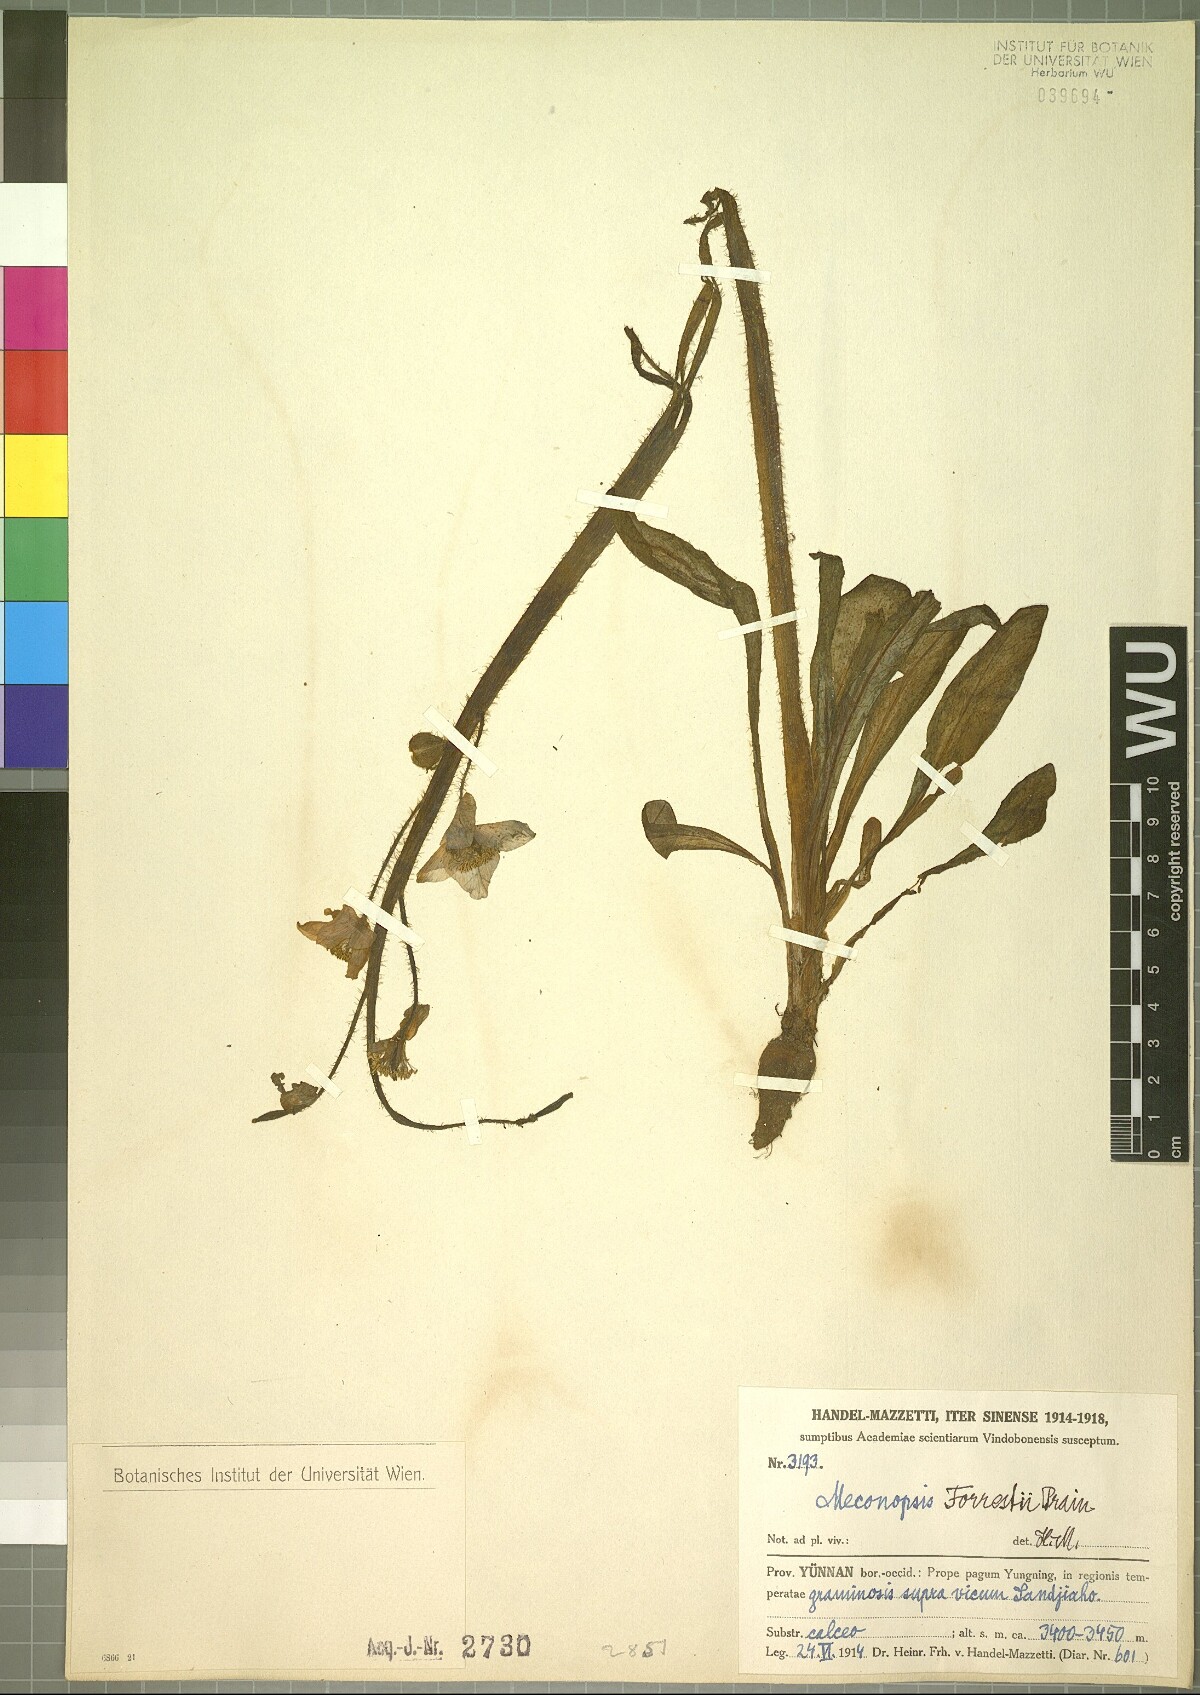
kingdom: Plantae
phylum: Tracheophyta
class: Magnoliopsida
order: Ranunculales
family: Papaveraceae
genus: Meconopsis
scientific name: Meconopsis forrestii
